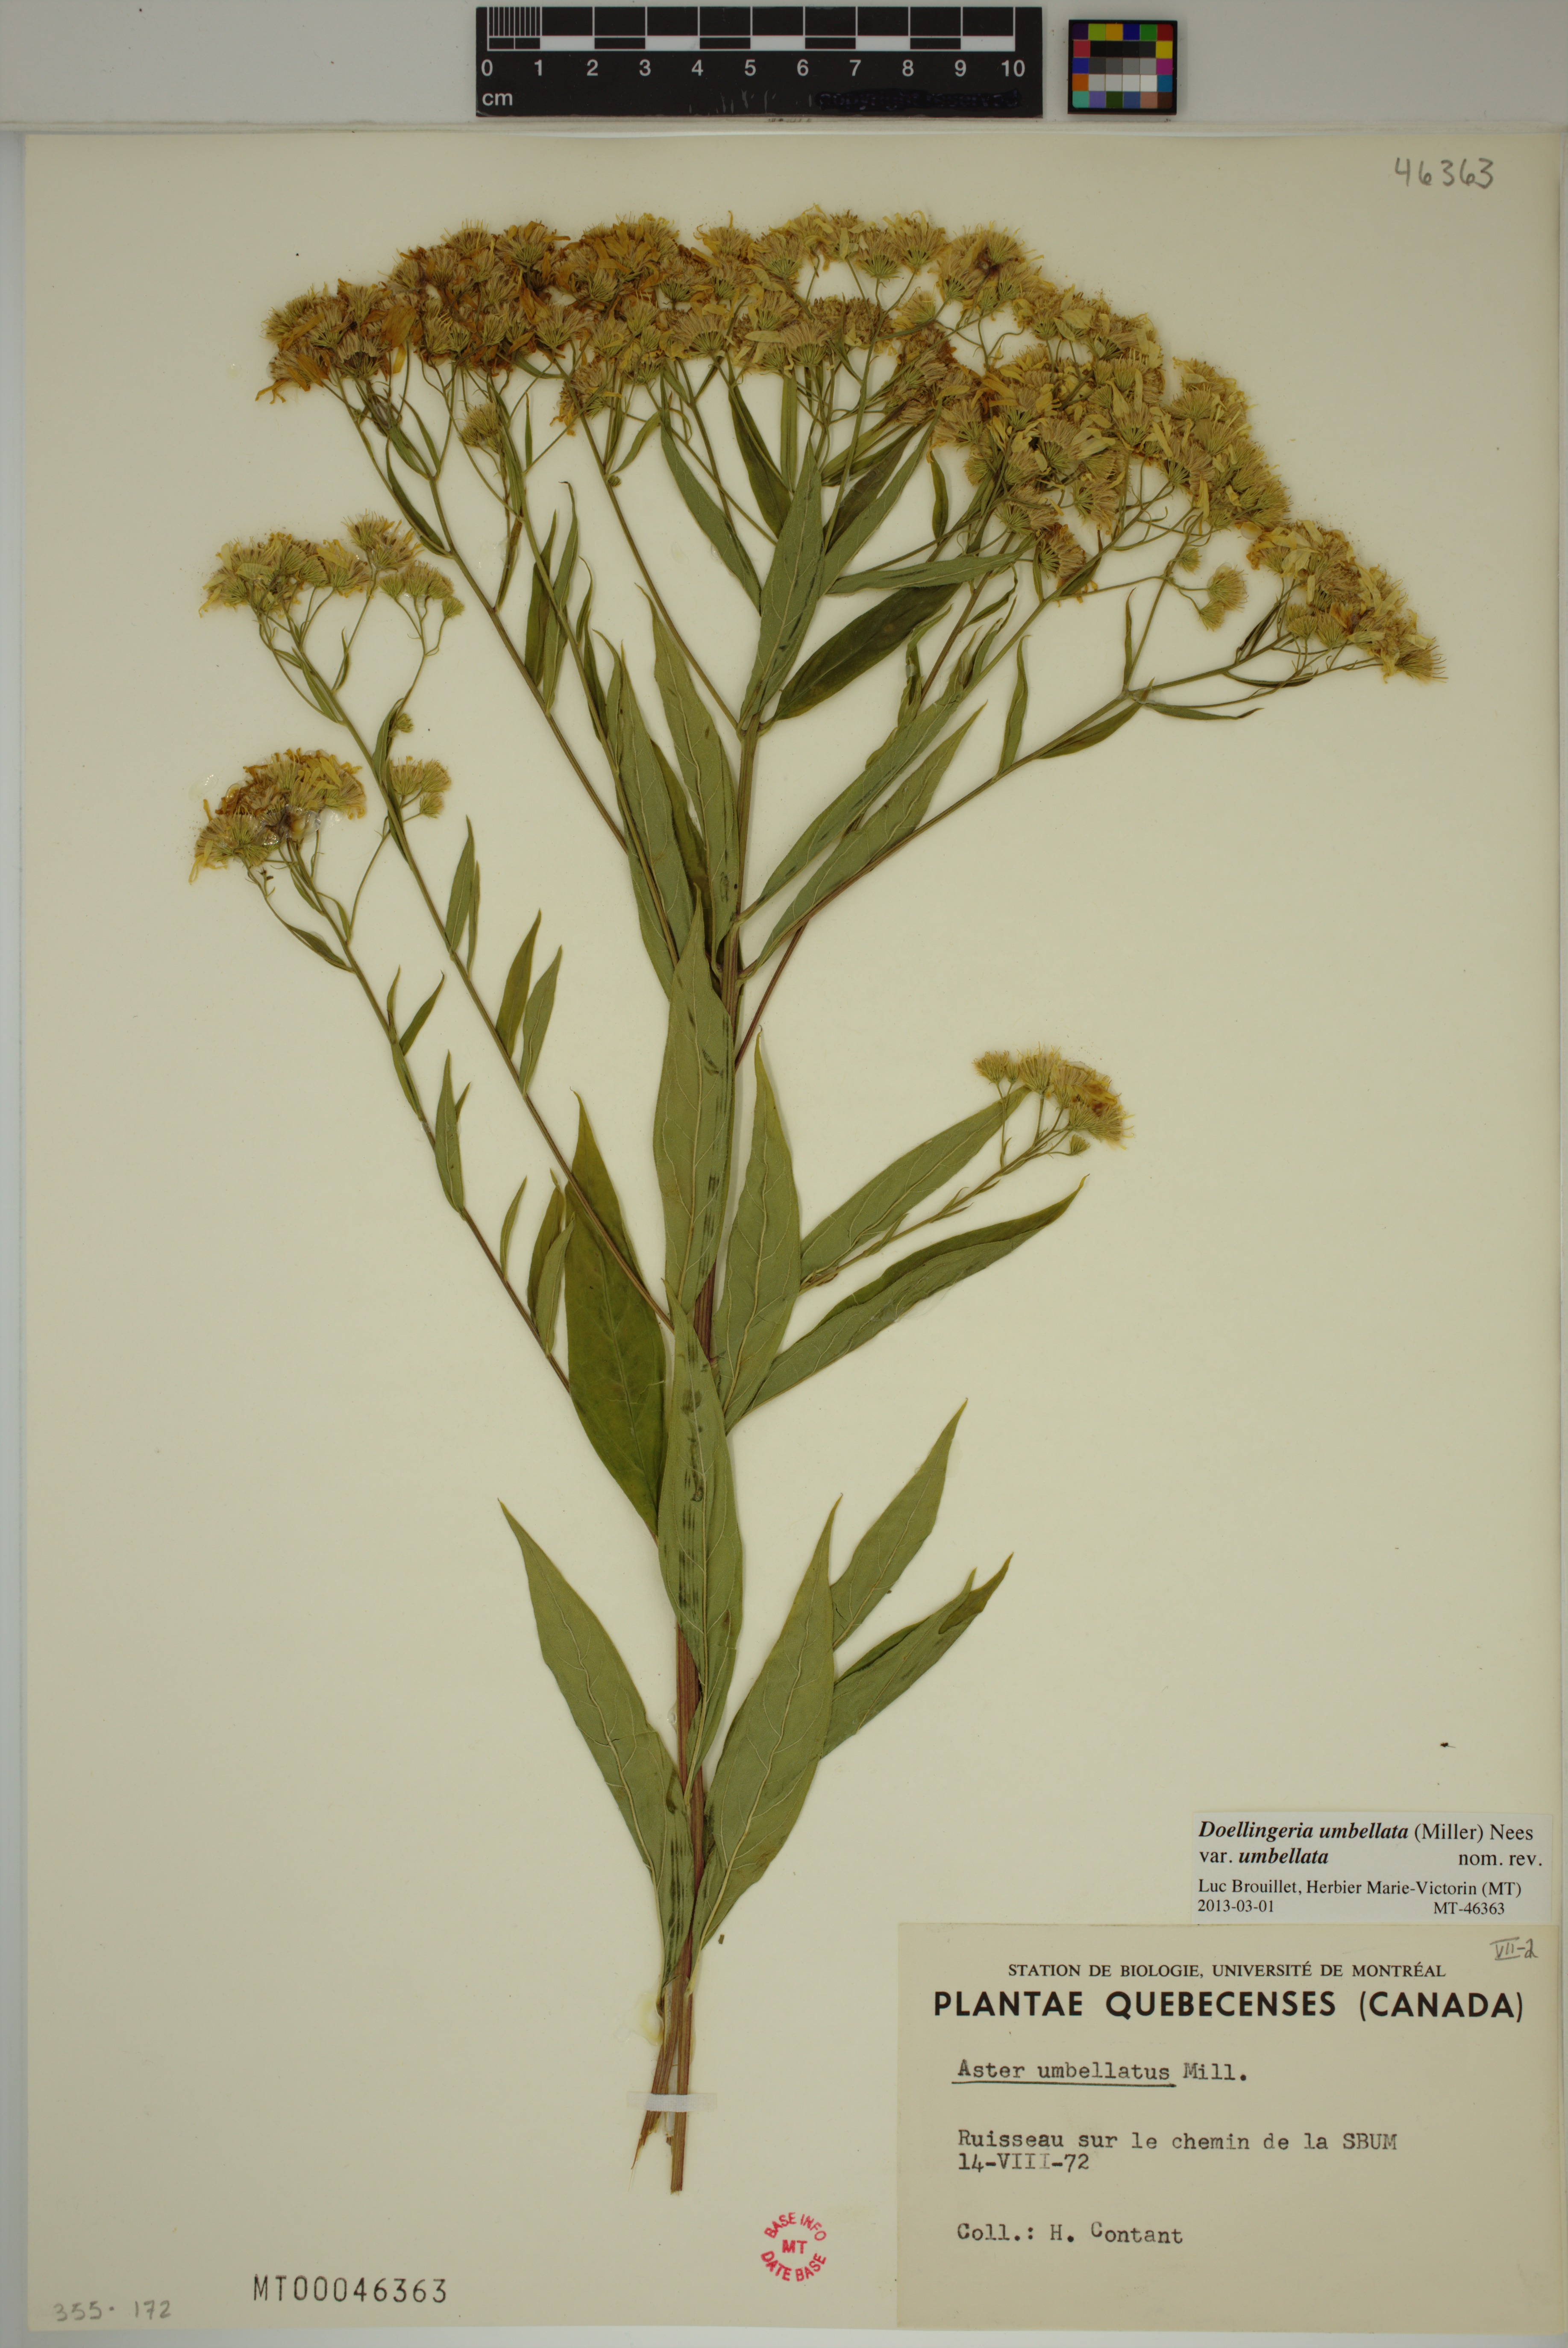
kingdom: Plantae
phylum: Tracheophyta
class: Magnoliopsida
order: Asterales
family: Asteraceae
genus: Doellingeria
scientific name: Doellingeria umbellata
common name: Flat-top white aster
